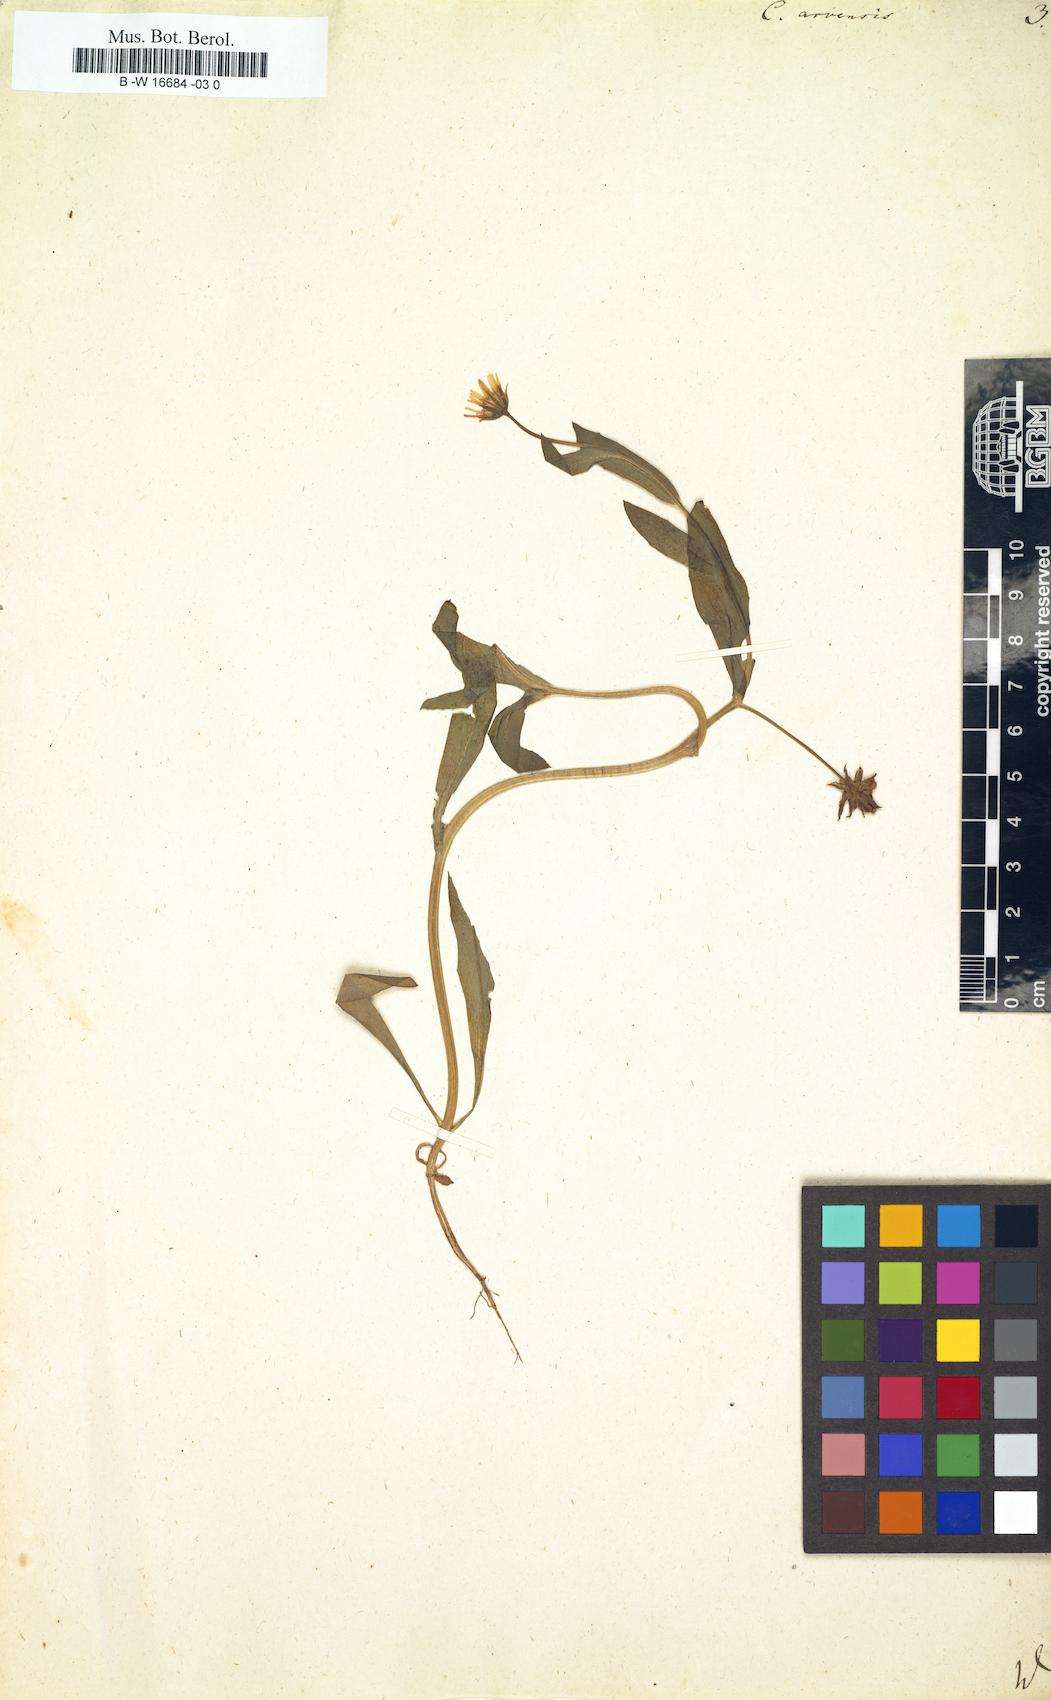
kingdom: Plantae
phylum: Tracheophyta
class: Magnoliopsida
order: Asterales
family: Asteraceae
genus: Calendula
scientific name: Calendula arvensis
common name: Field marigold
